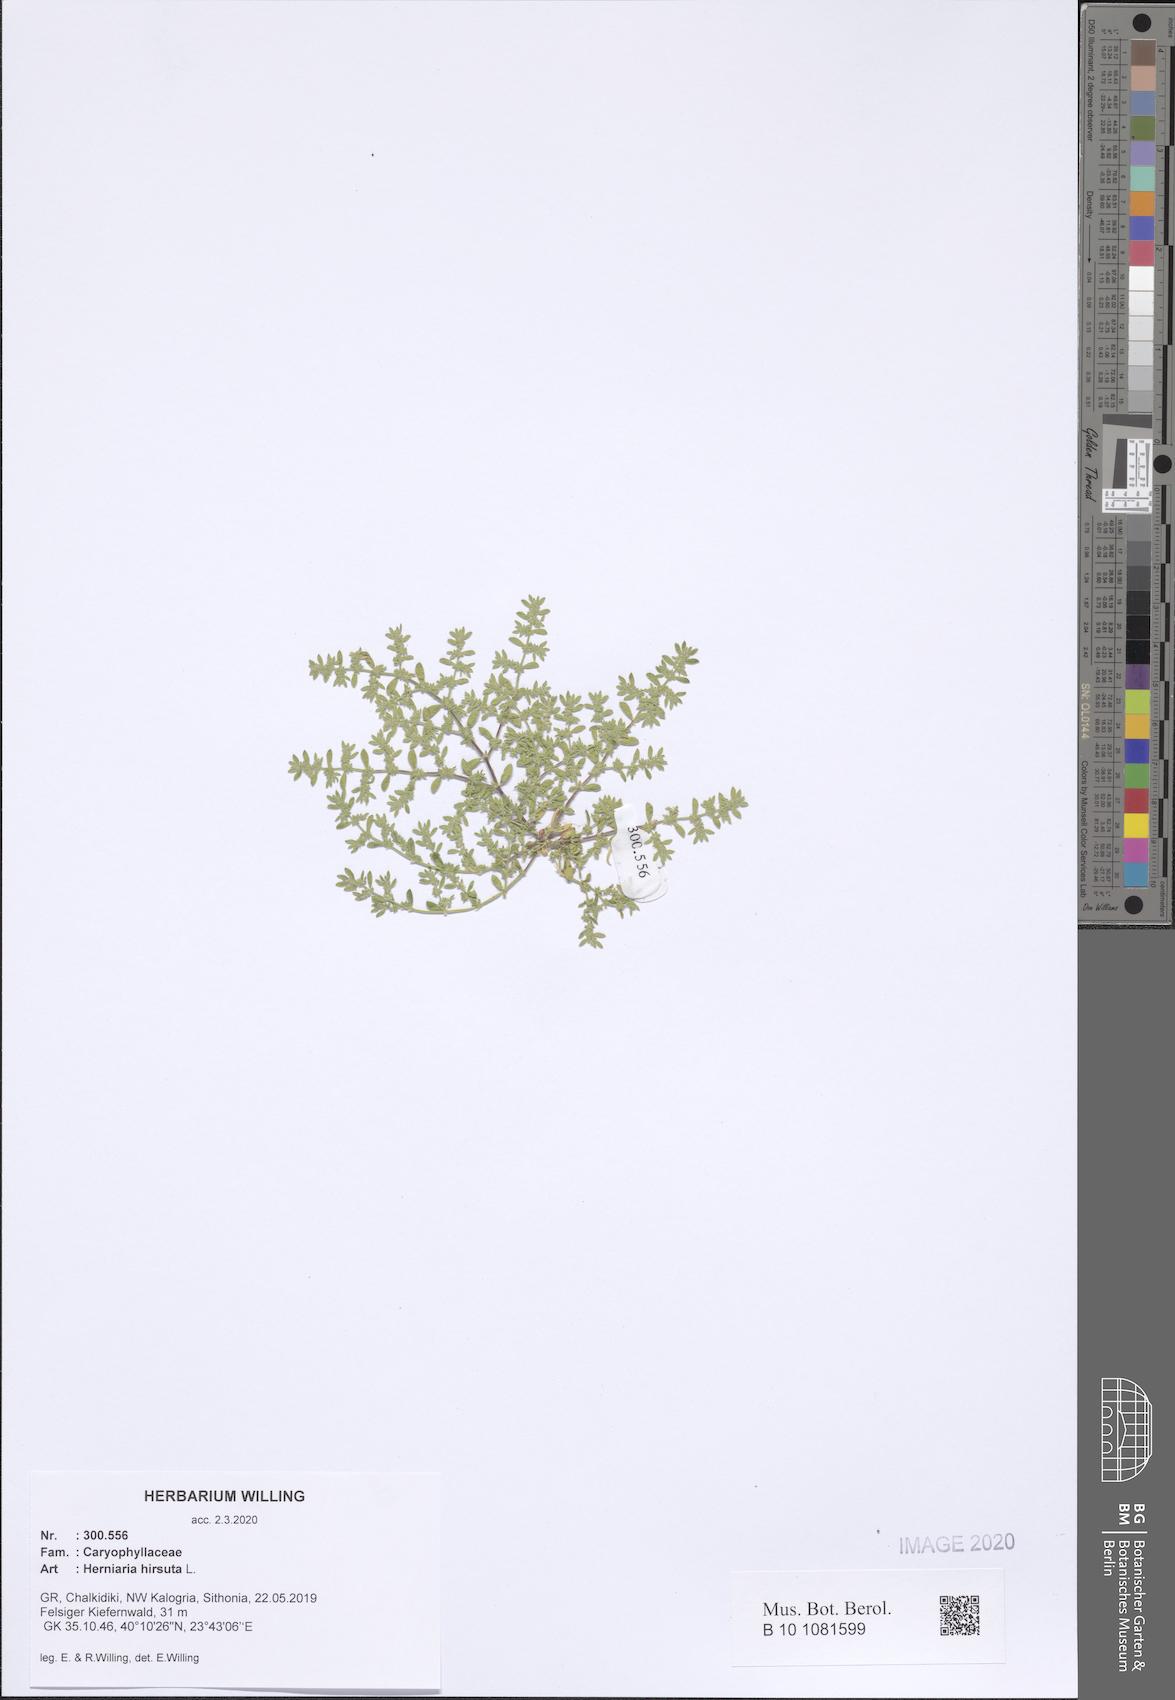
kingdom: Plantae
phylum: Tracheophyta
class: Magnoliopsida
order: Caryophyllales
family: Caryophyllaceae
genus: Herniaria
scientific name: Herniaria hirsuta
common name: Hairy rupturewort
